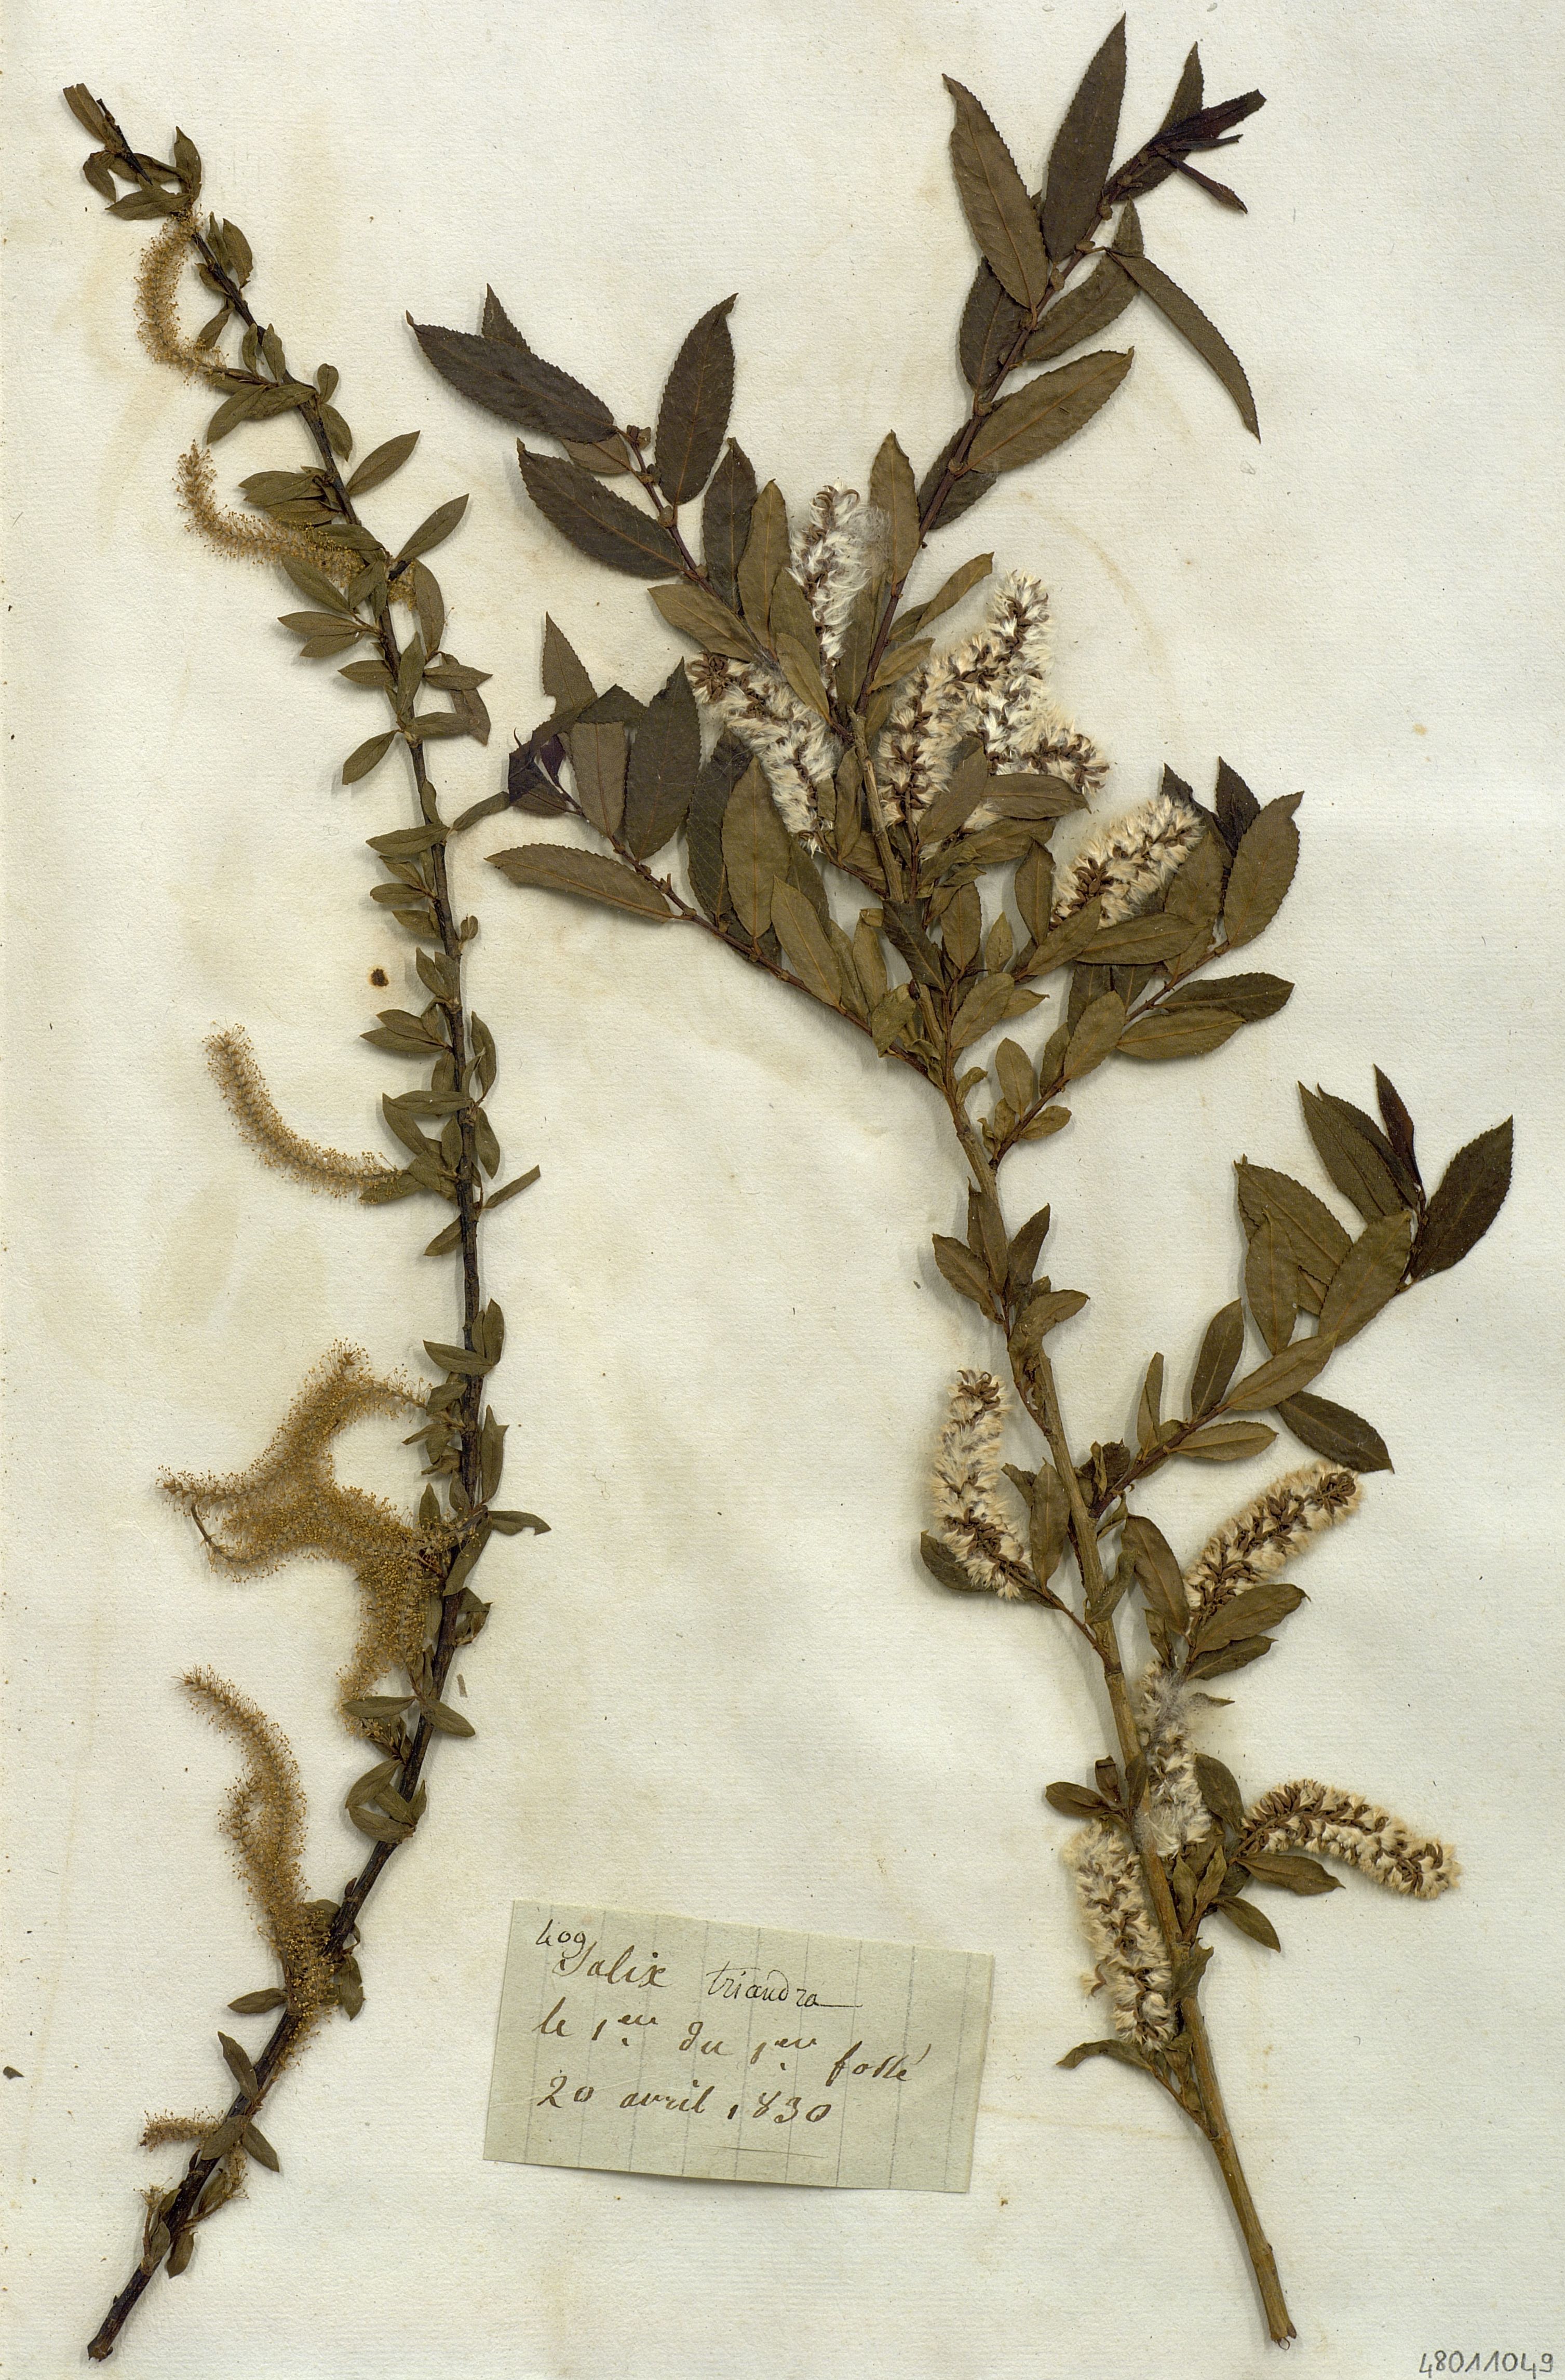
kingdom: Plantae
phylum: Tracheophyta
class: Magnoliopsida
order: Malpighiales
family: Salicaceae
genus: Salix
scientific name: Salix triandra
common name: Almond willow
